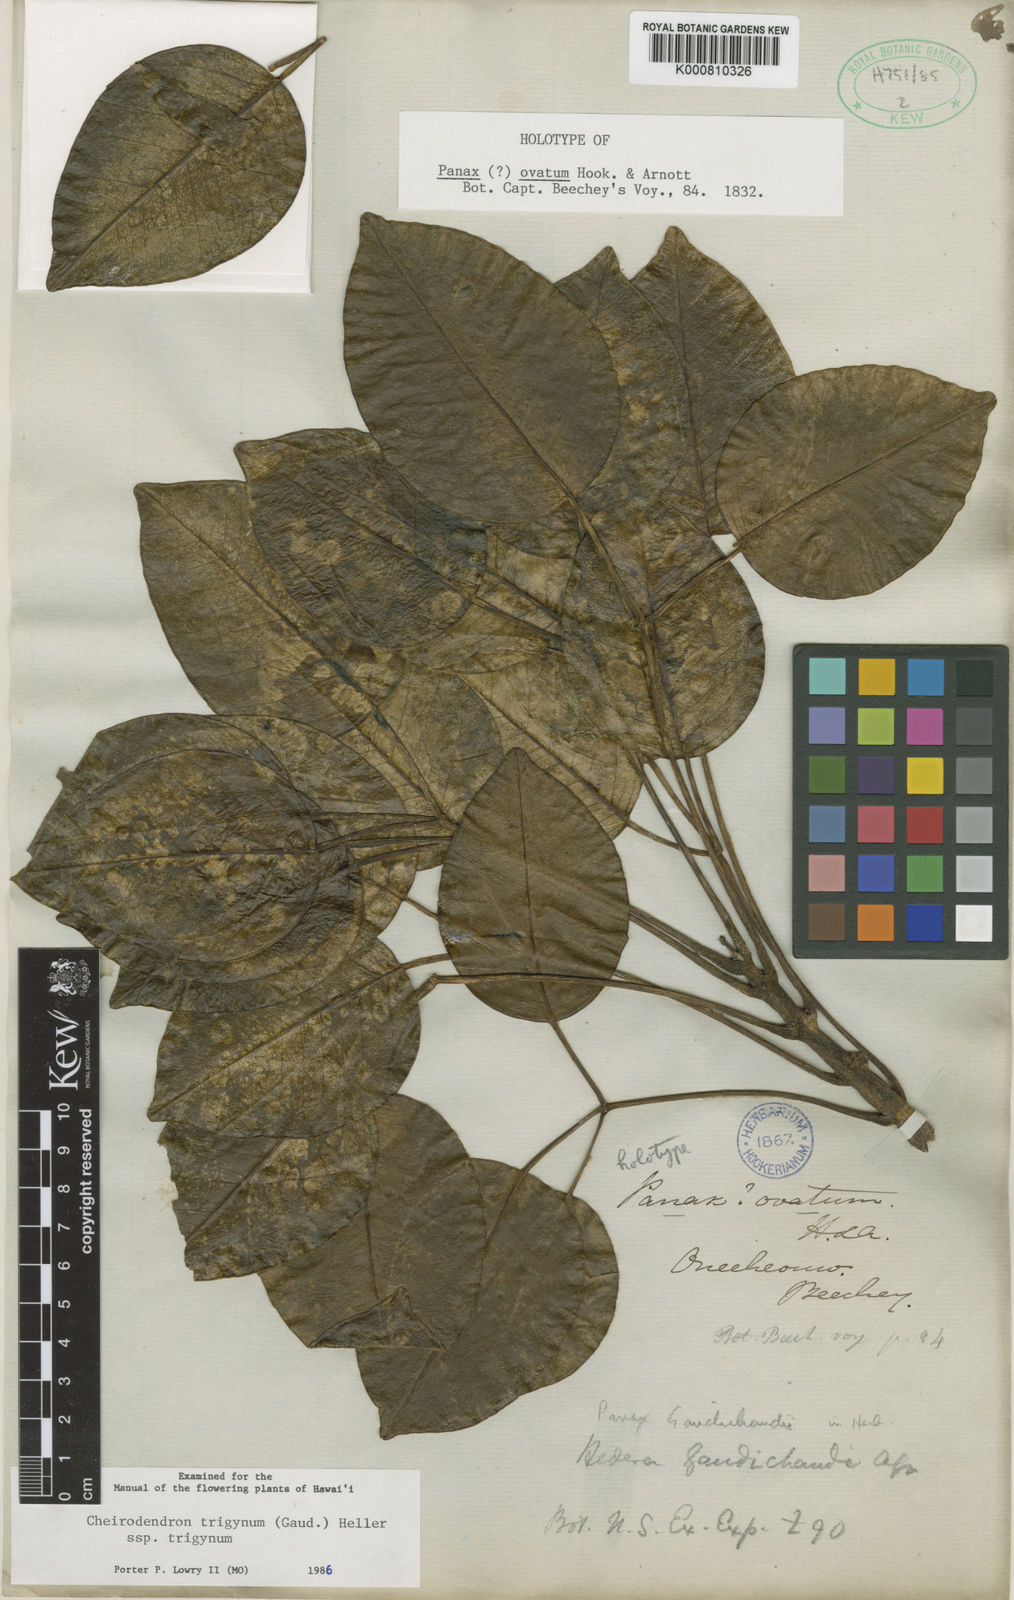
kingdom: Plantae
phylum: Tracheophyta
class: Magnoliopsida
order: Apiales
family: Araliaceae
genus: Cheirodendron
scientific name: Cheirodendron trigynum
